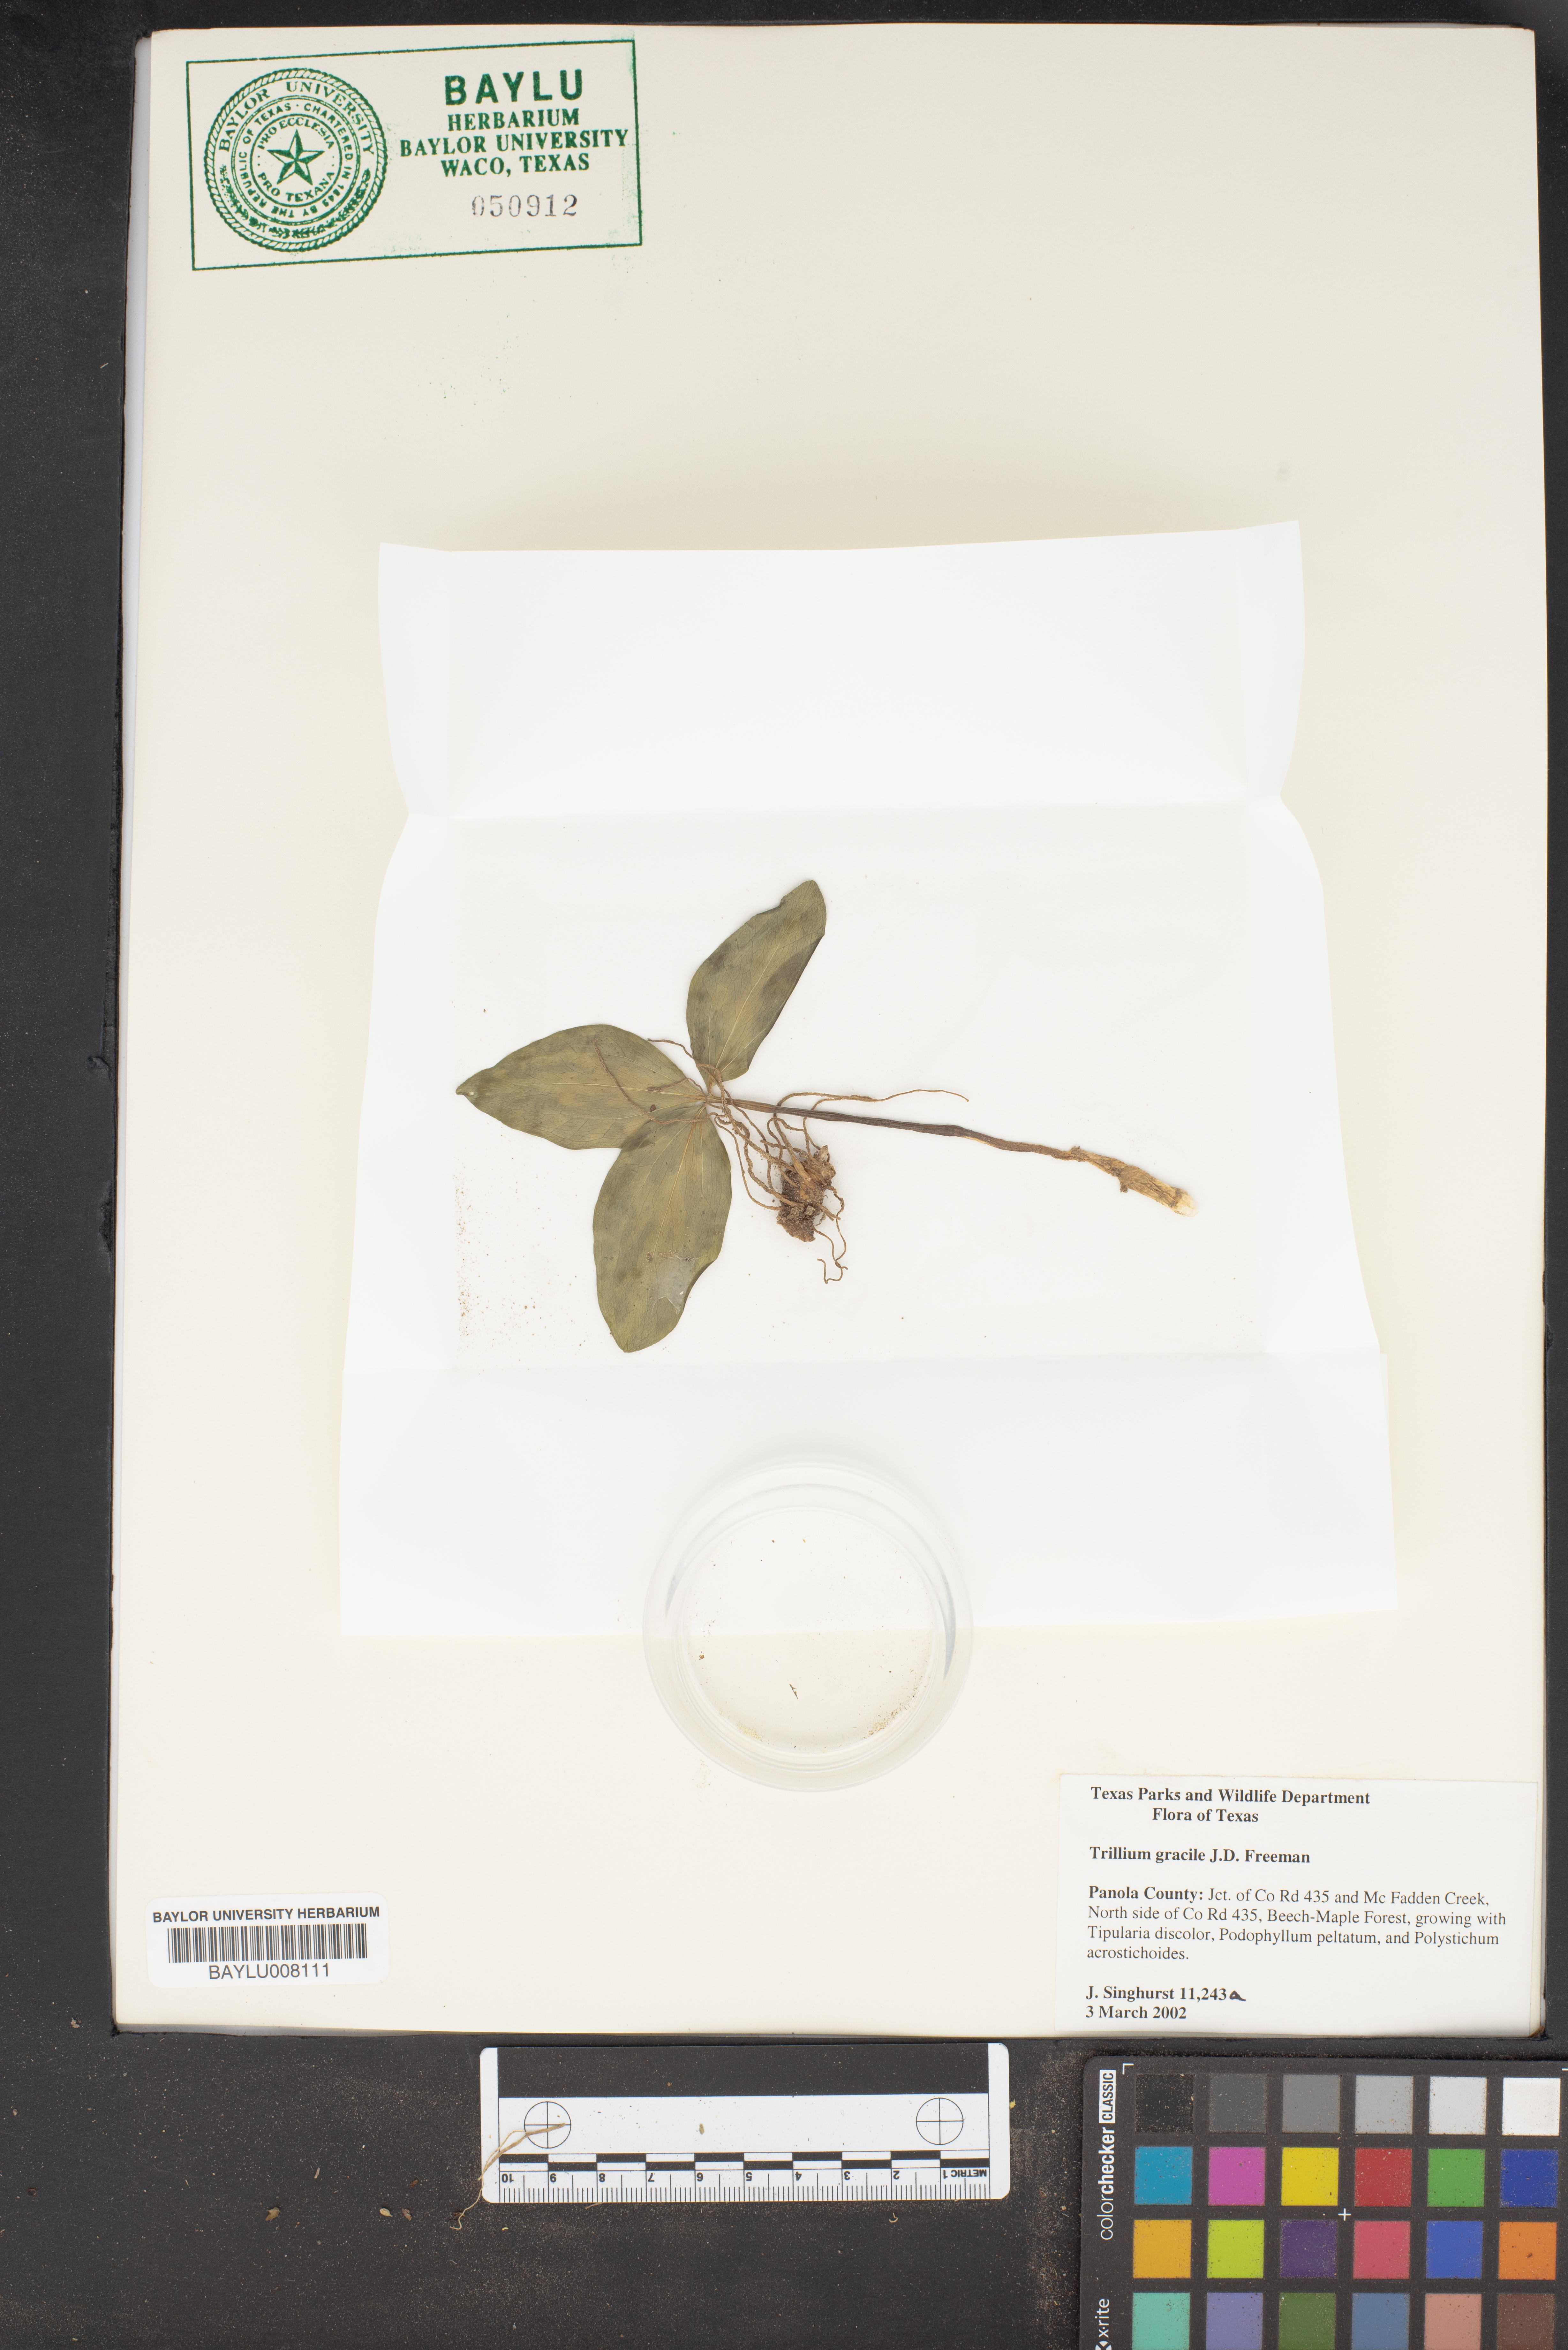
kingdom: Plantae
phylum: Tracheophyta
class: Liliopsida
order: Liliales
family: Melanthiaceae
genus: Trillium
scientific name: Trillium gracile
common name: Graceful trillium
